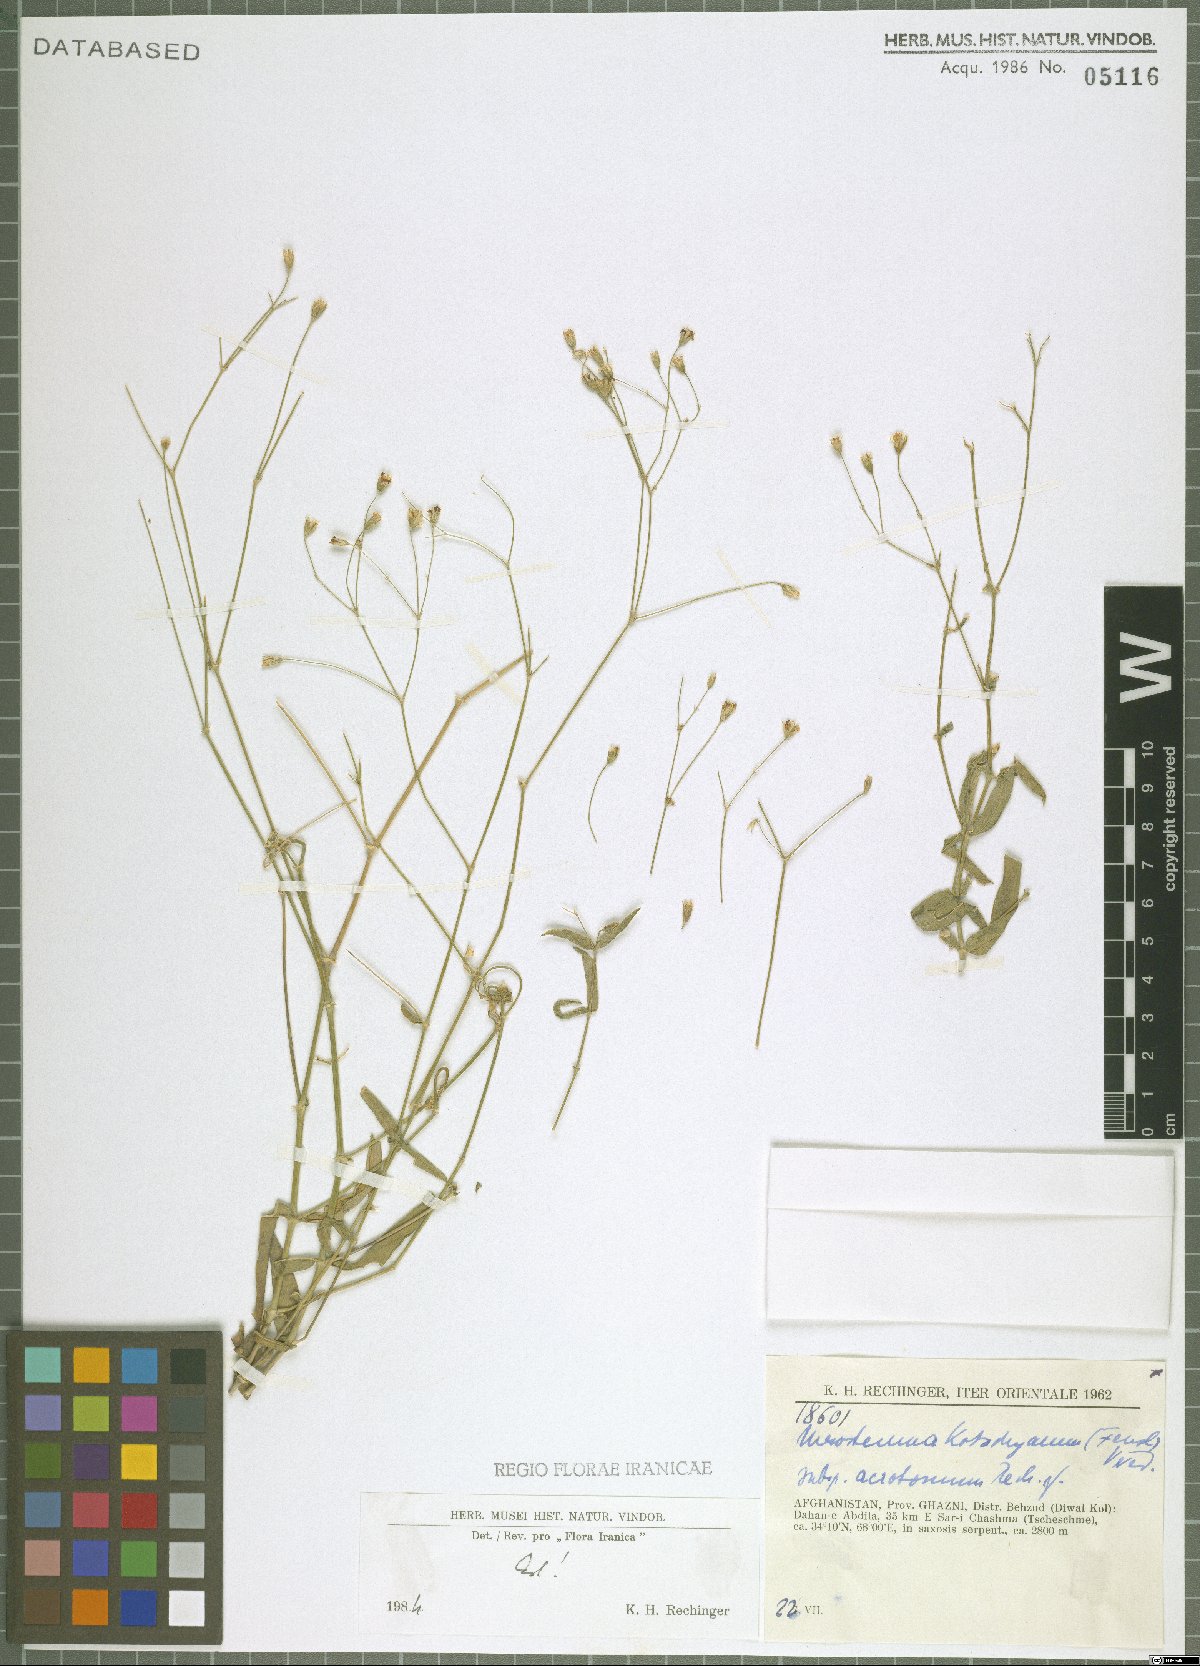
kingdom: Plantae
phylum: Tracheophyta
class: Magnoliopsida
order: Caryophyllales
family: Caryophyllaceae
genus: Mesostemma
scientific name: Mesostemma kotschyanum
